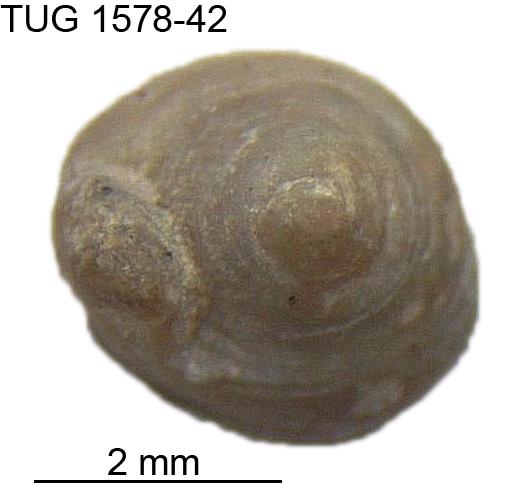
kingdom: Animalia
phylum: Mollusca
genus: Anticalyptraea
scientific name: Anticalyptraea westergaardi
